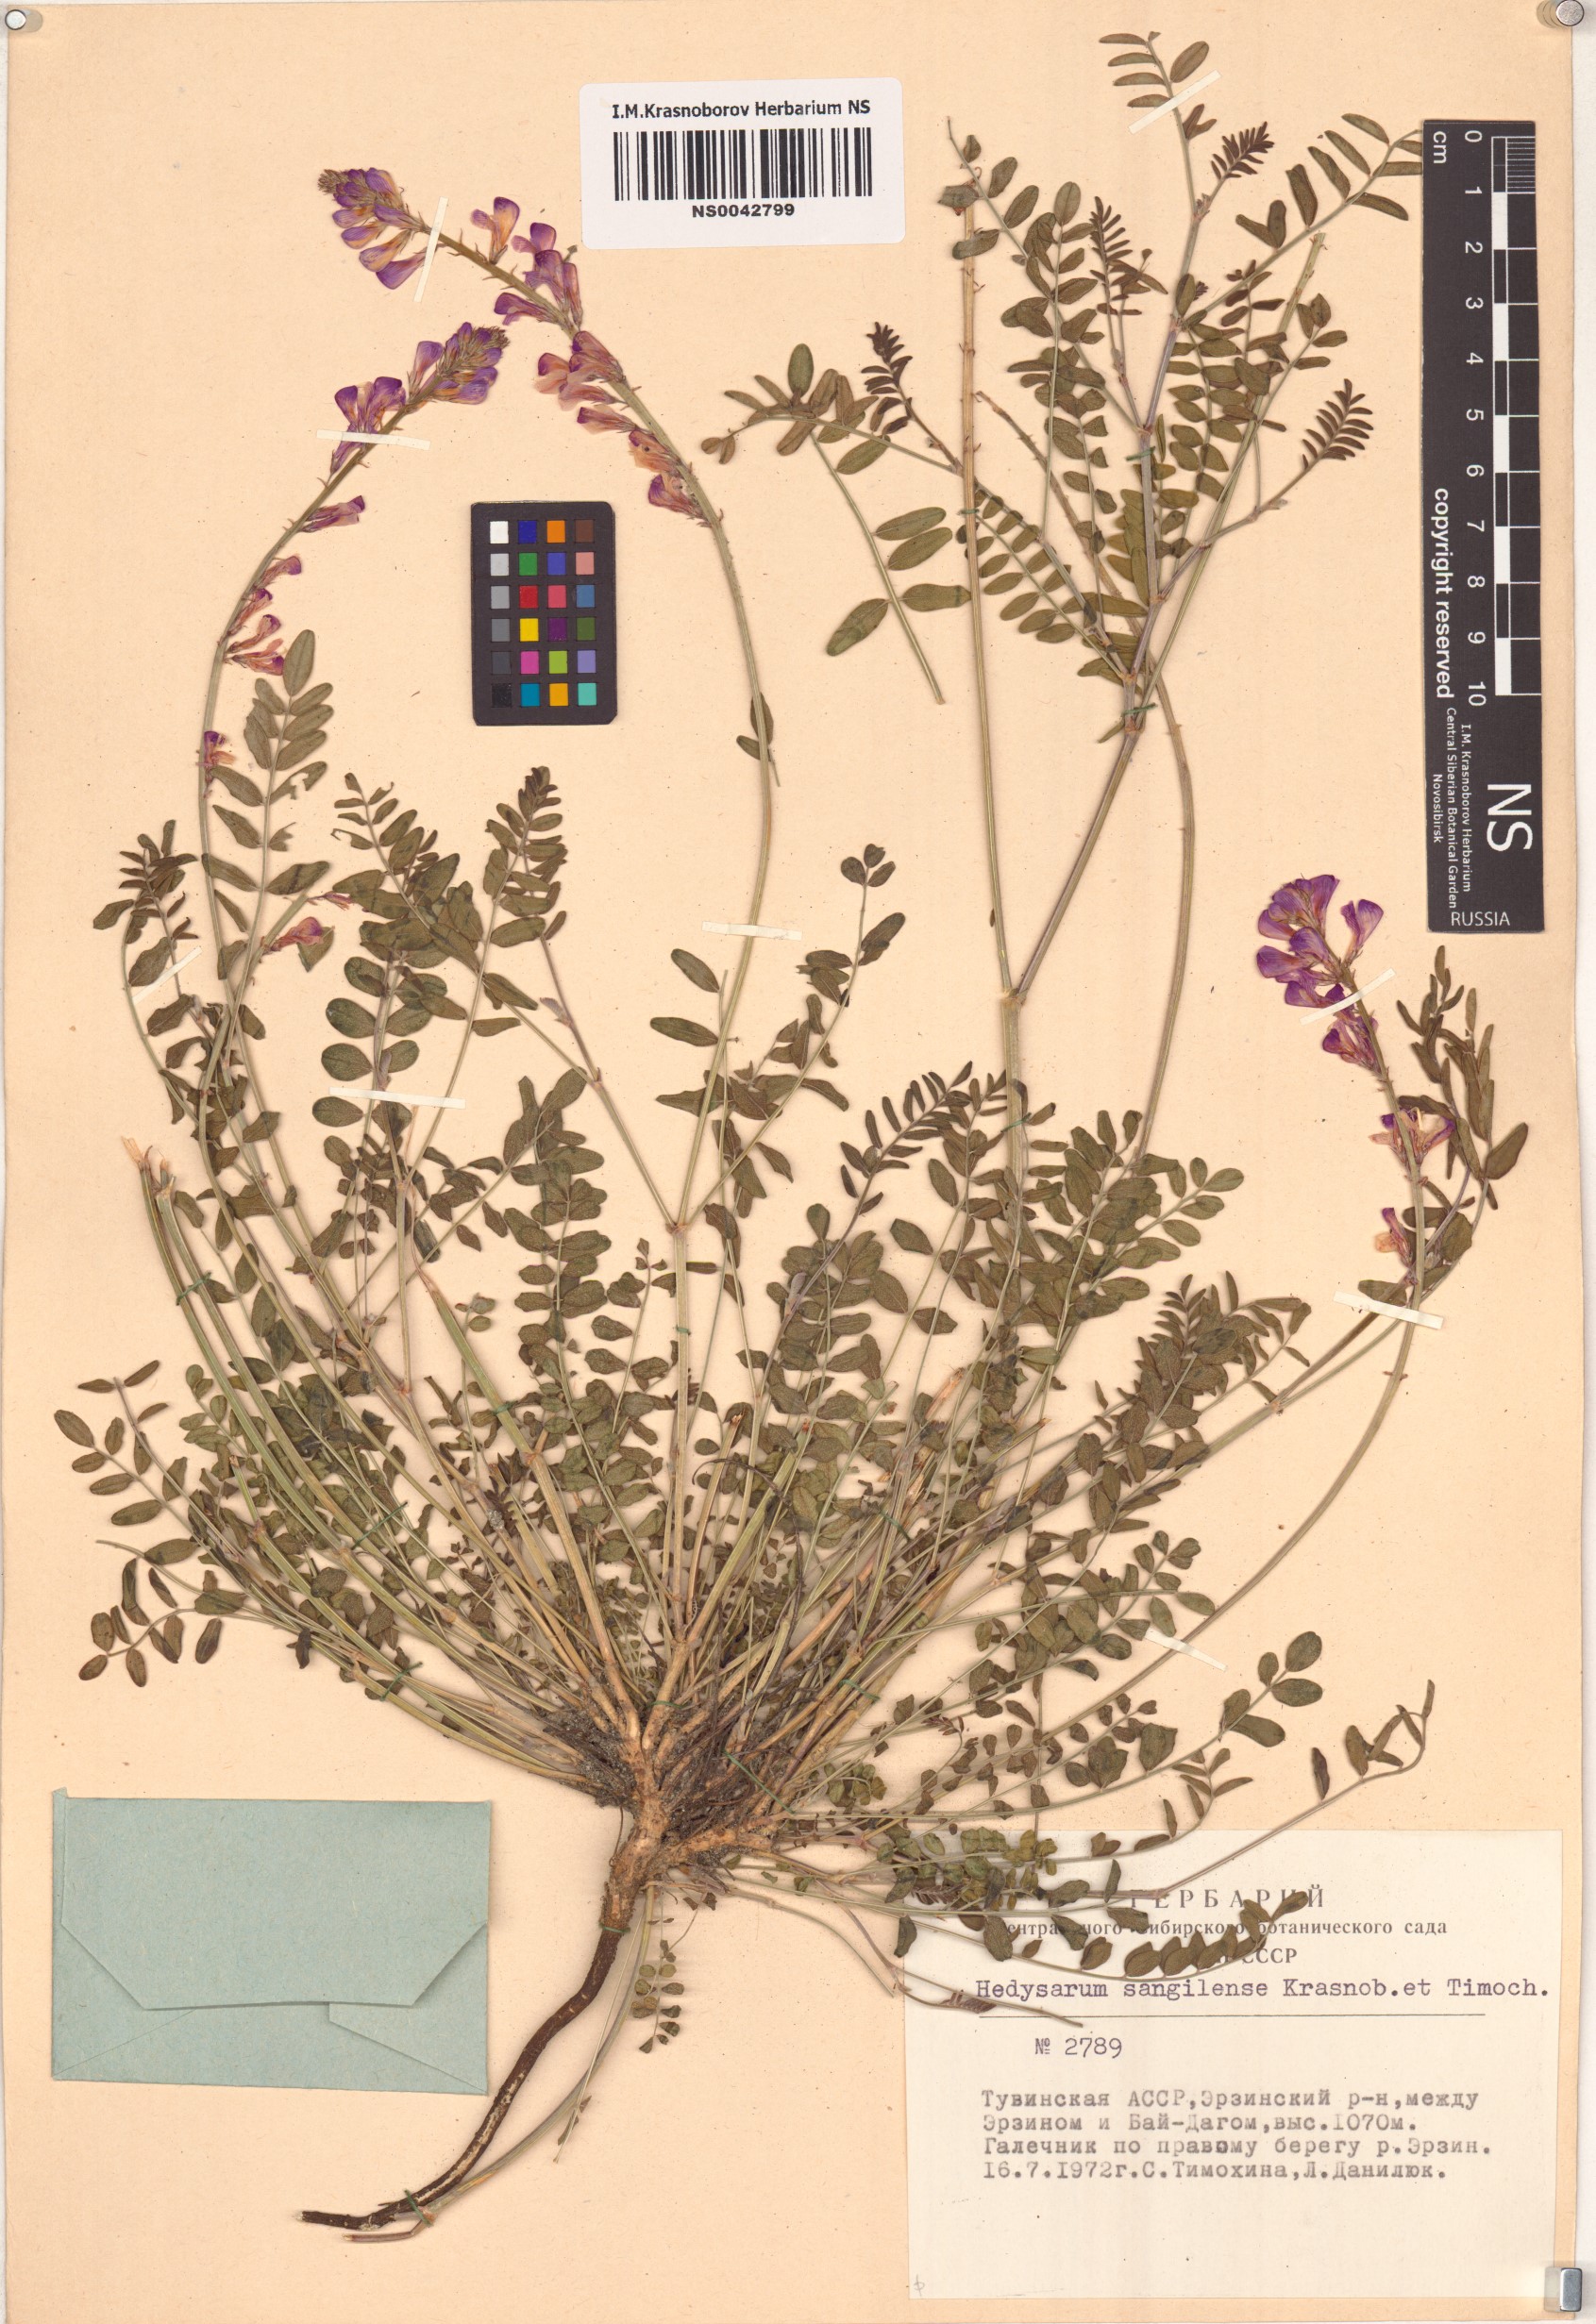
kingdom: Plantae
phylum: Tracheophyta
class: Magnoliopsida
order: Fabales
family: Fabaceae
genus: Hedysarum
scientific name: Hedysarum sangilense
